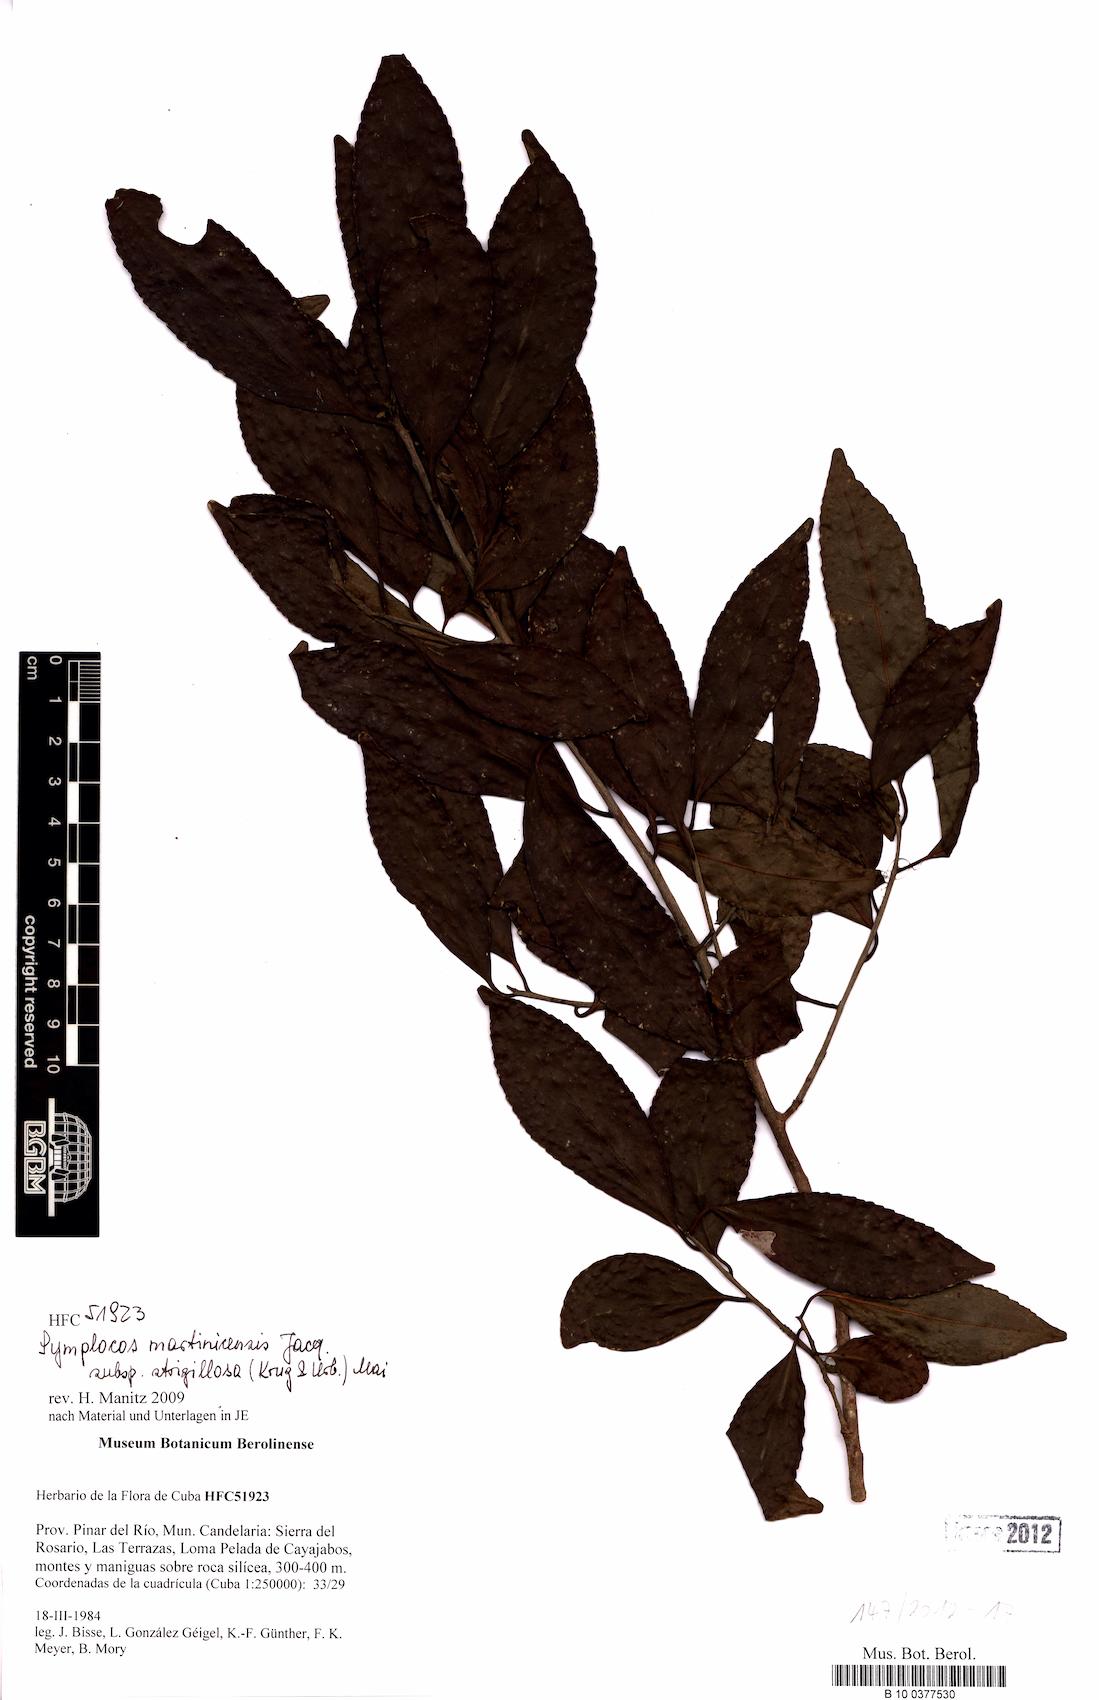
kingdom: Plantae
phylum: Tracheophyta
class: Magnoliopsida
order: Ericales
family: Symplocaceae
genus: Symplocos
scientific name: Symplocos jurgensenii
